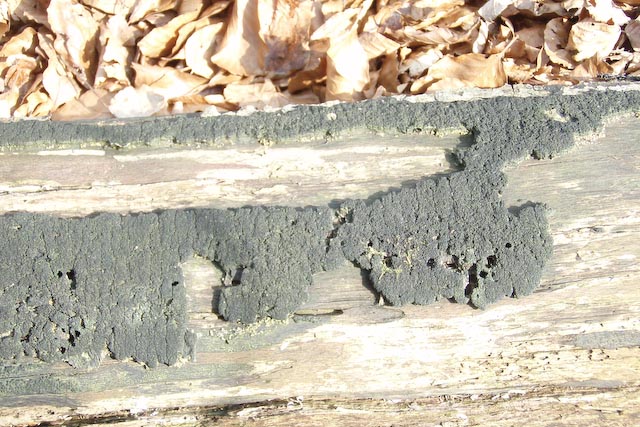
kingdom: Fungi
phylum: Ascomycota
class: Sordariomycetes
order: Xylariales
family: Diatrypaceae
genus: Eutypa
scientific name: Eutypa spinosa
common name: grov kulskorpe
